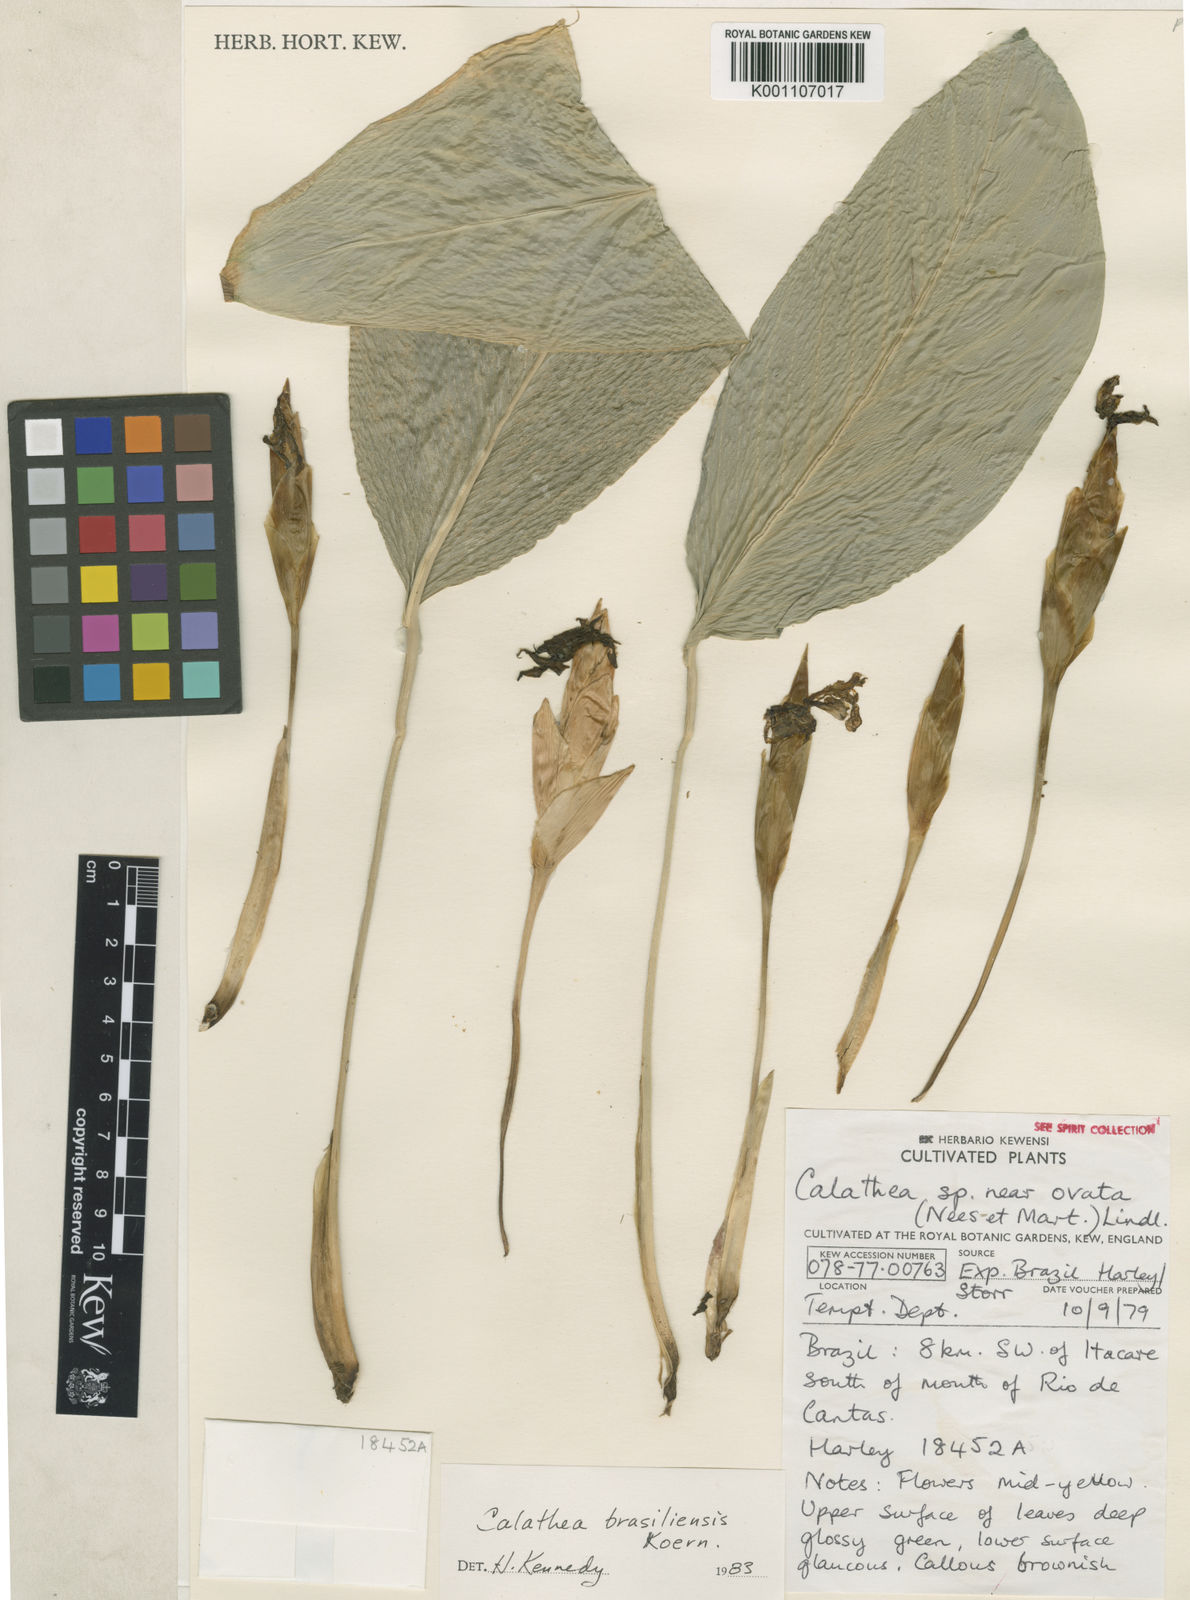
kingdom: Plantae
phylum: Tracheophyta
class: Liliopsida
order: Zingiberales
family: Marantaceae
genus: Calathea
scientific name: Calathea
